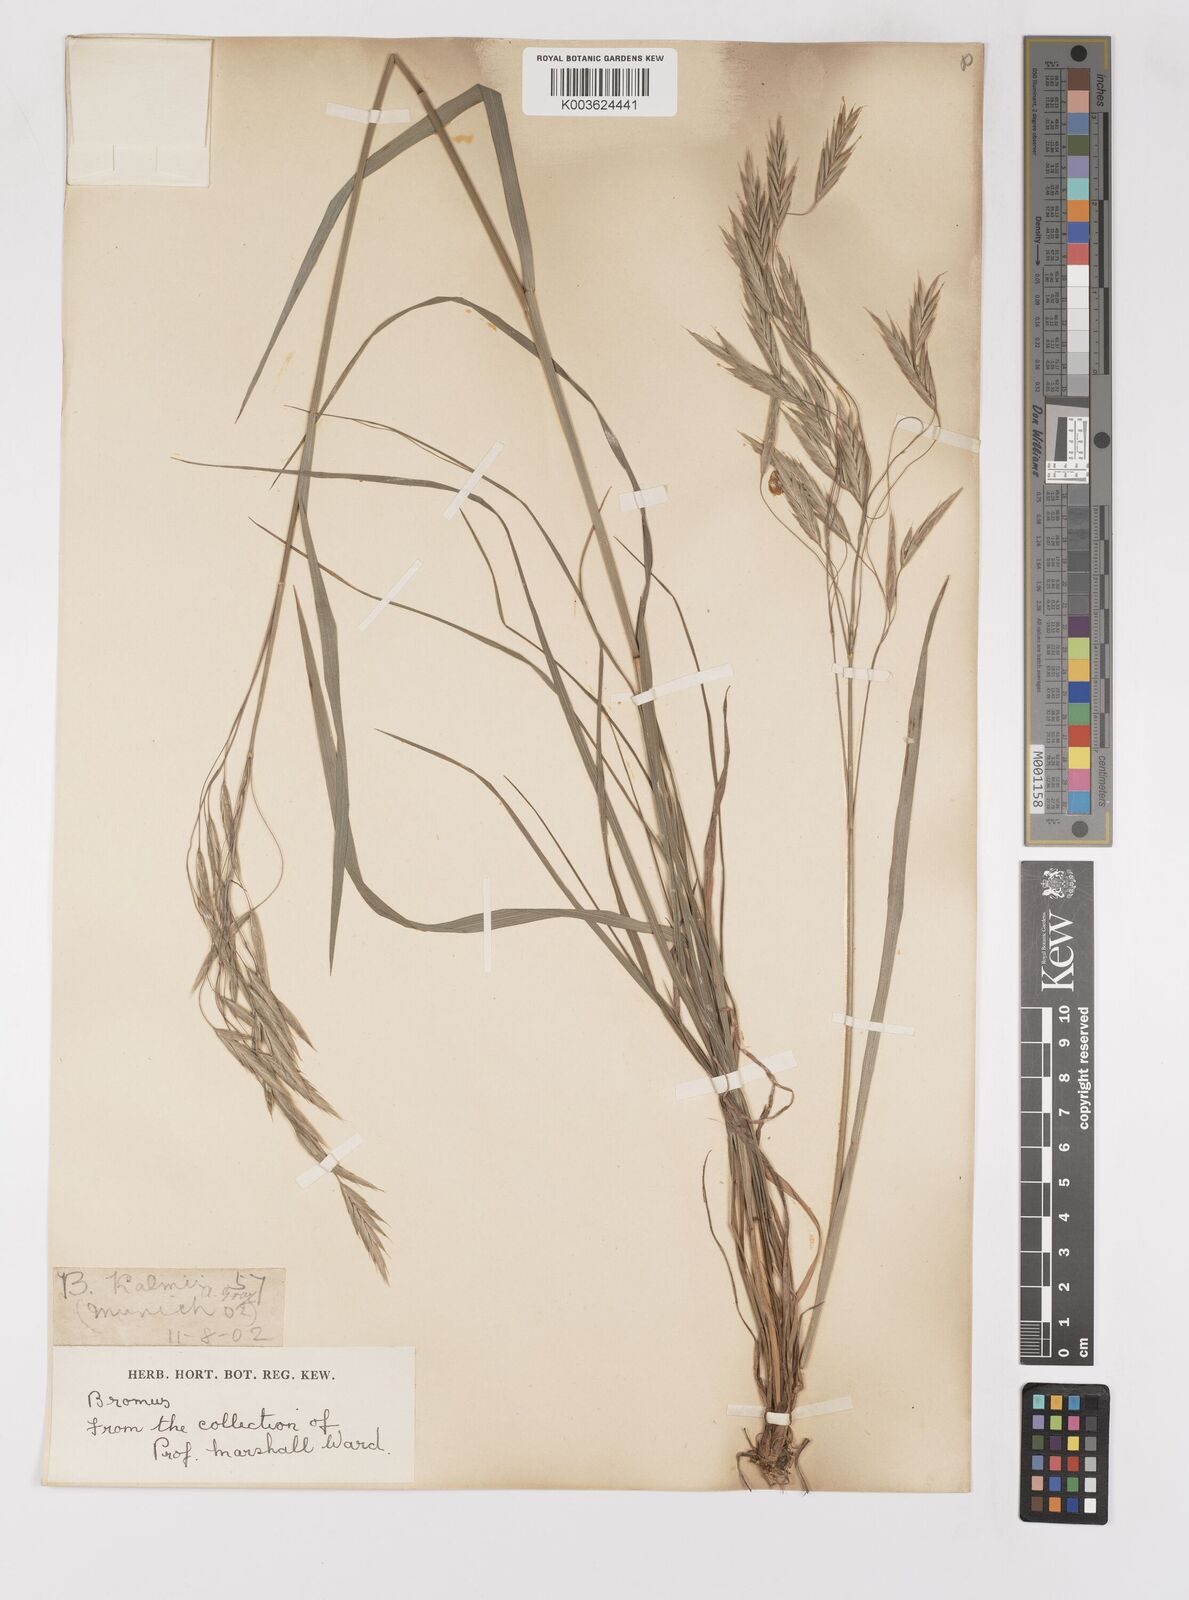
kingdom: Plantae
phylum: Tracheophyta
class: Liliopsida
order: Poales
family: Poaceae
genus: Bromus
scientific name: Bromus
